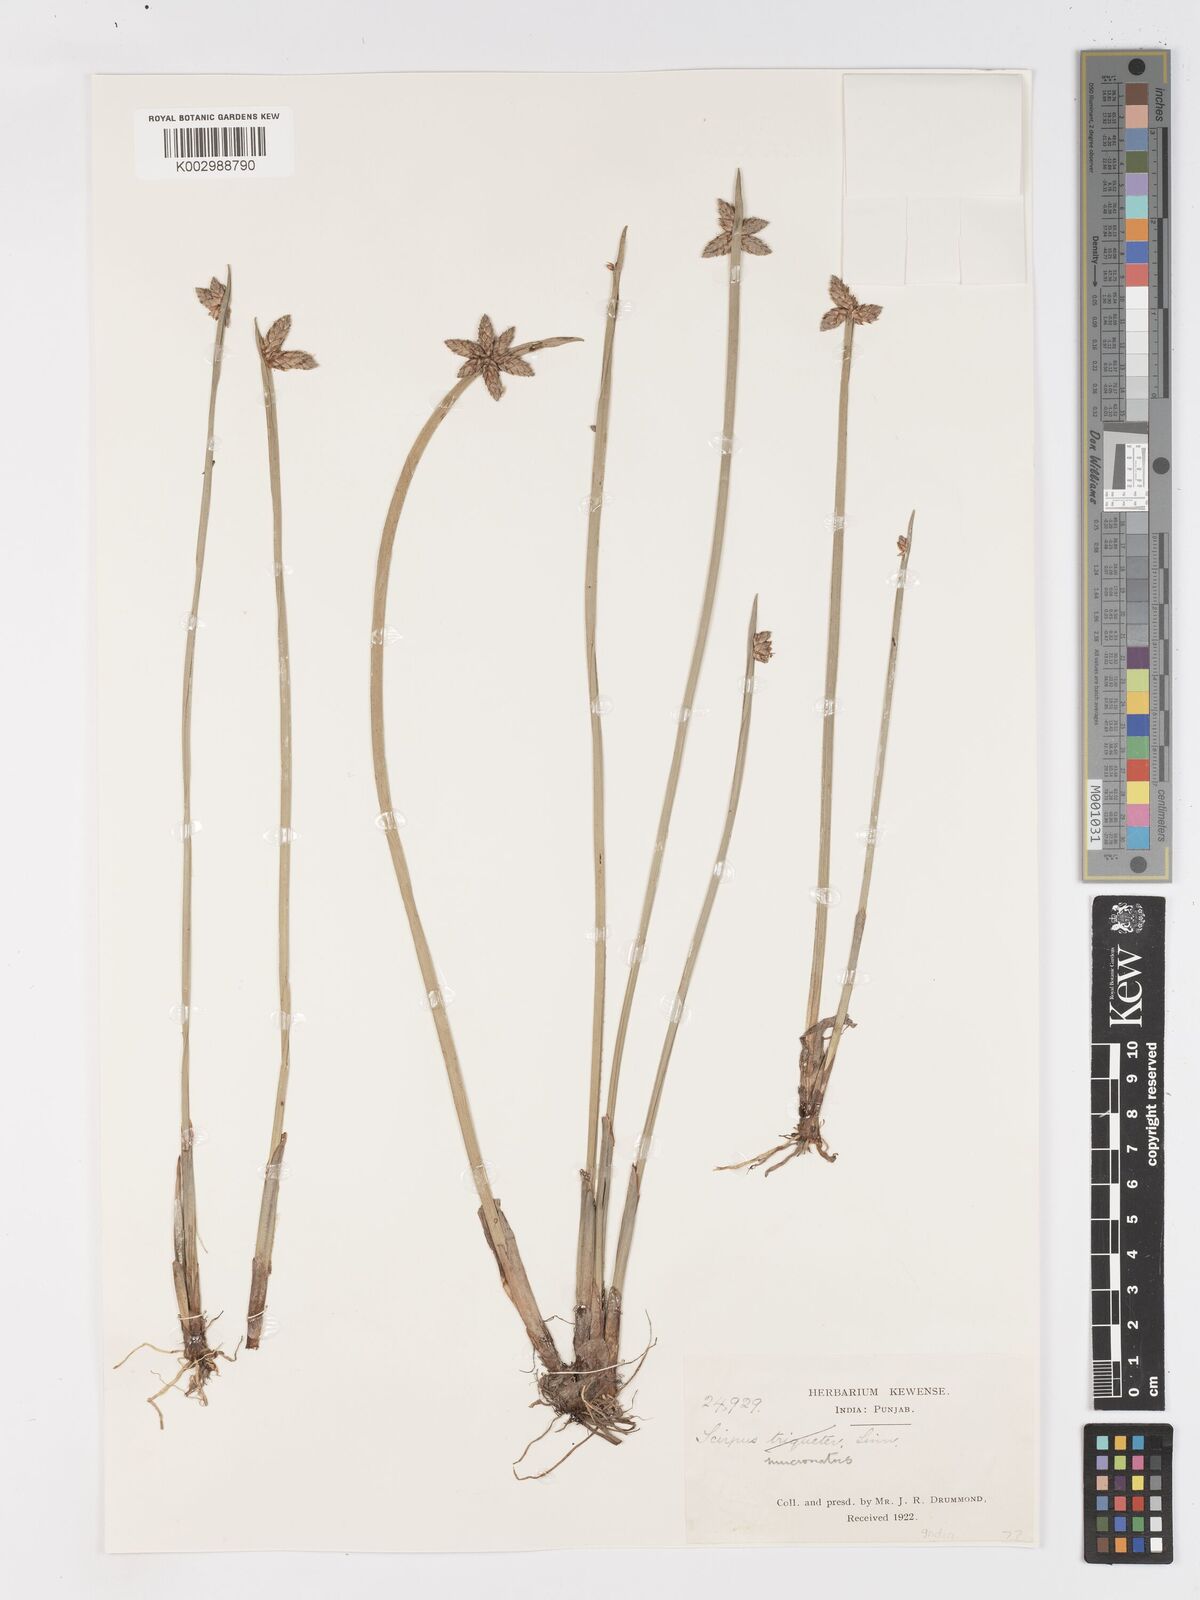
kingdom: Plantae
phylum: Tracheophyta
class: Liliopsida
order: Poales
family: Cyperaceae
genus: Schoenoplectiella
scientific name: Schoenoplectiella mucronata
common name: Bog bulrush
